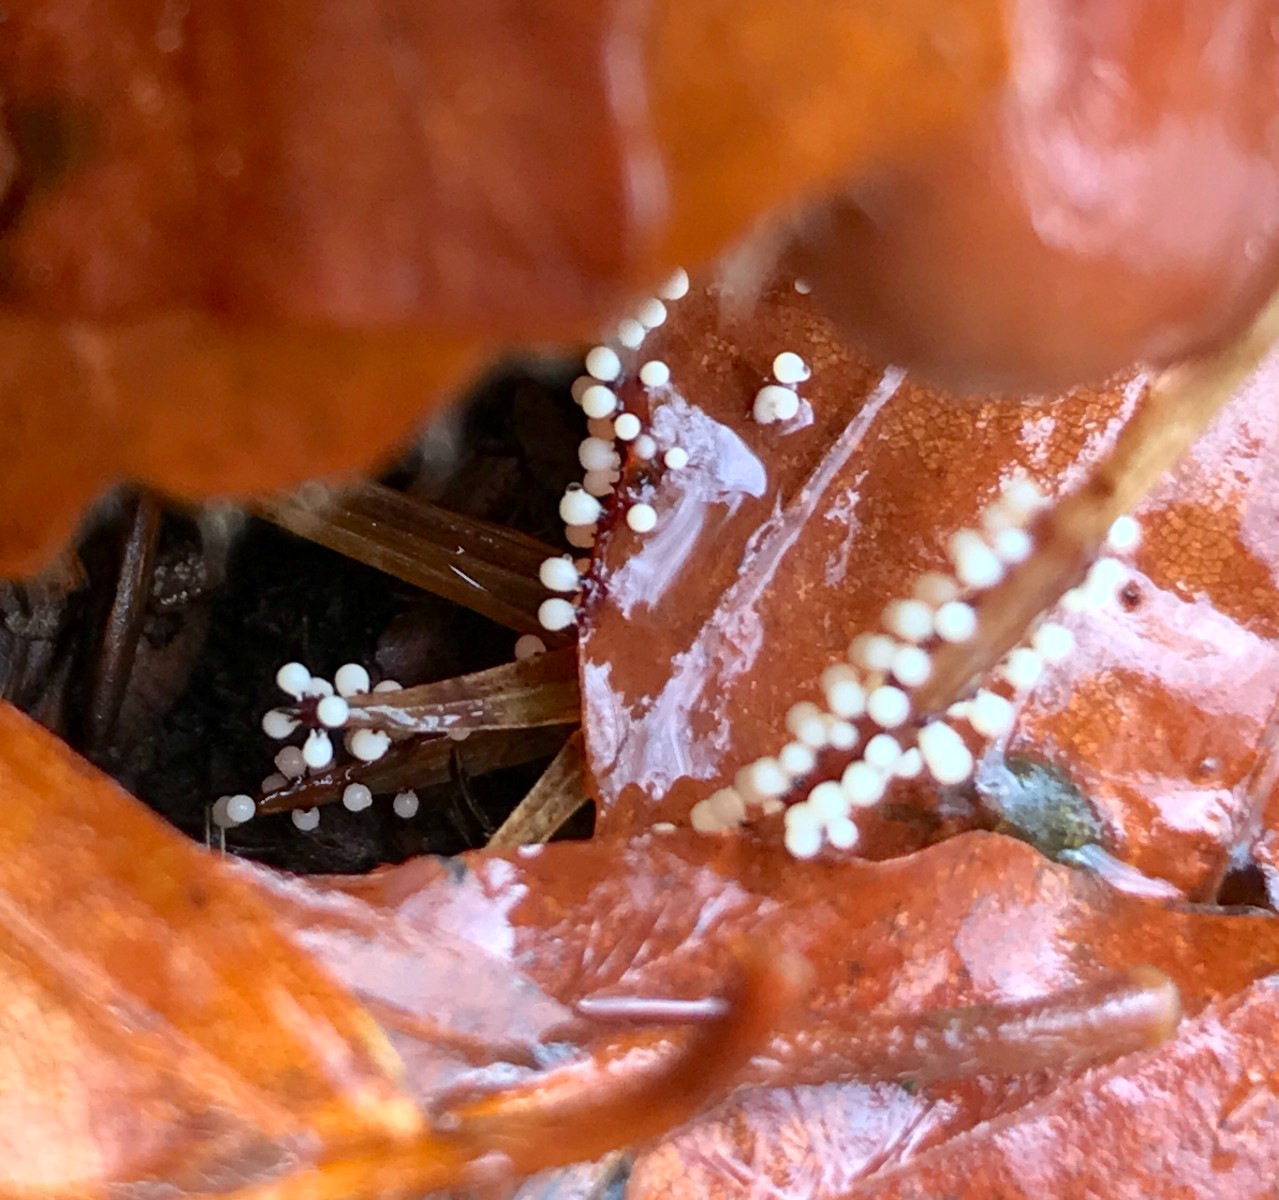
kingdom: Protozoa
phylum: Mycetozoa
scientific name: Mycetozoa
